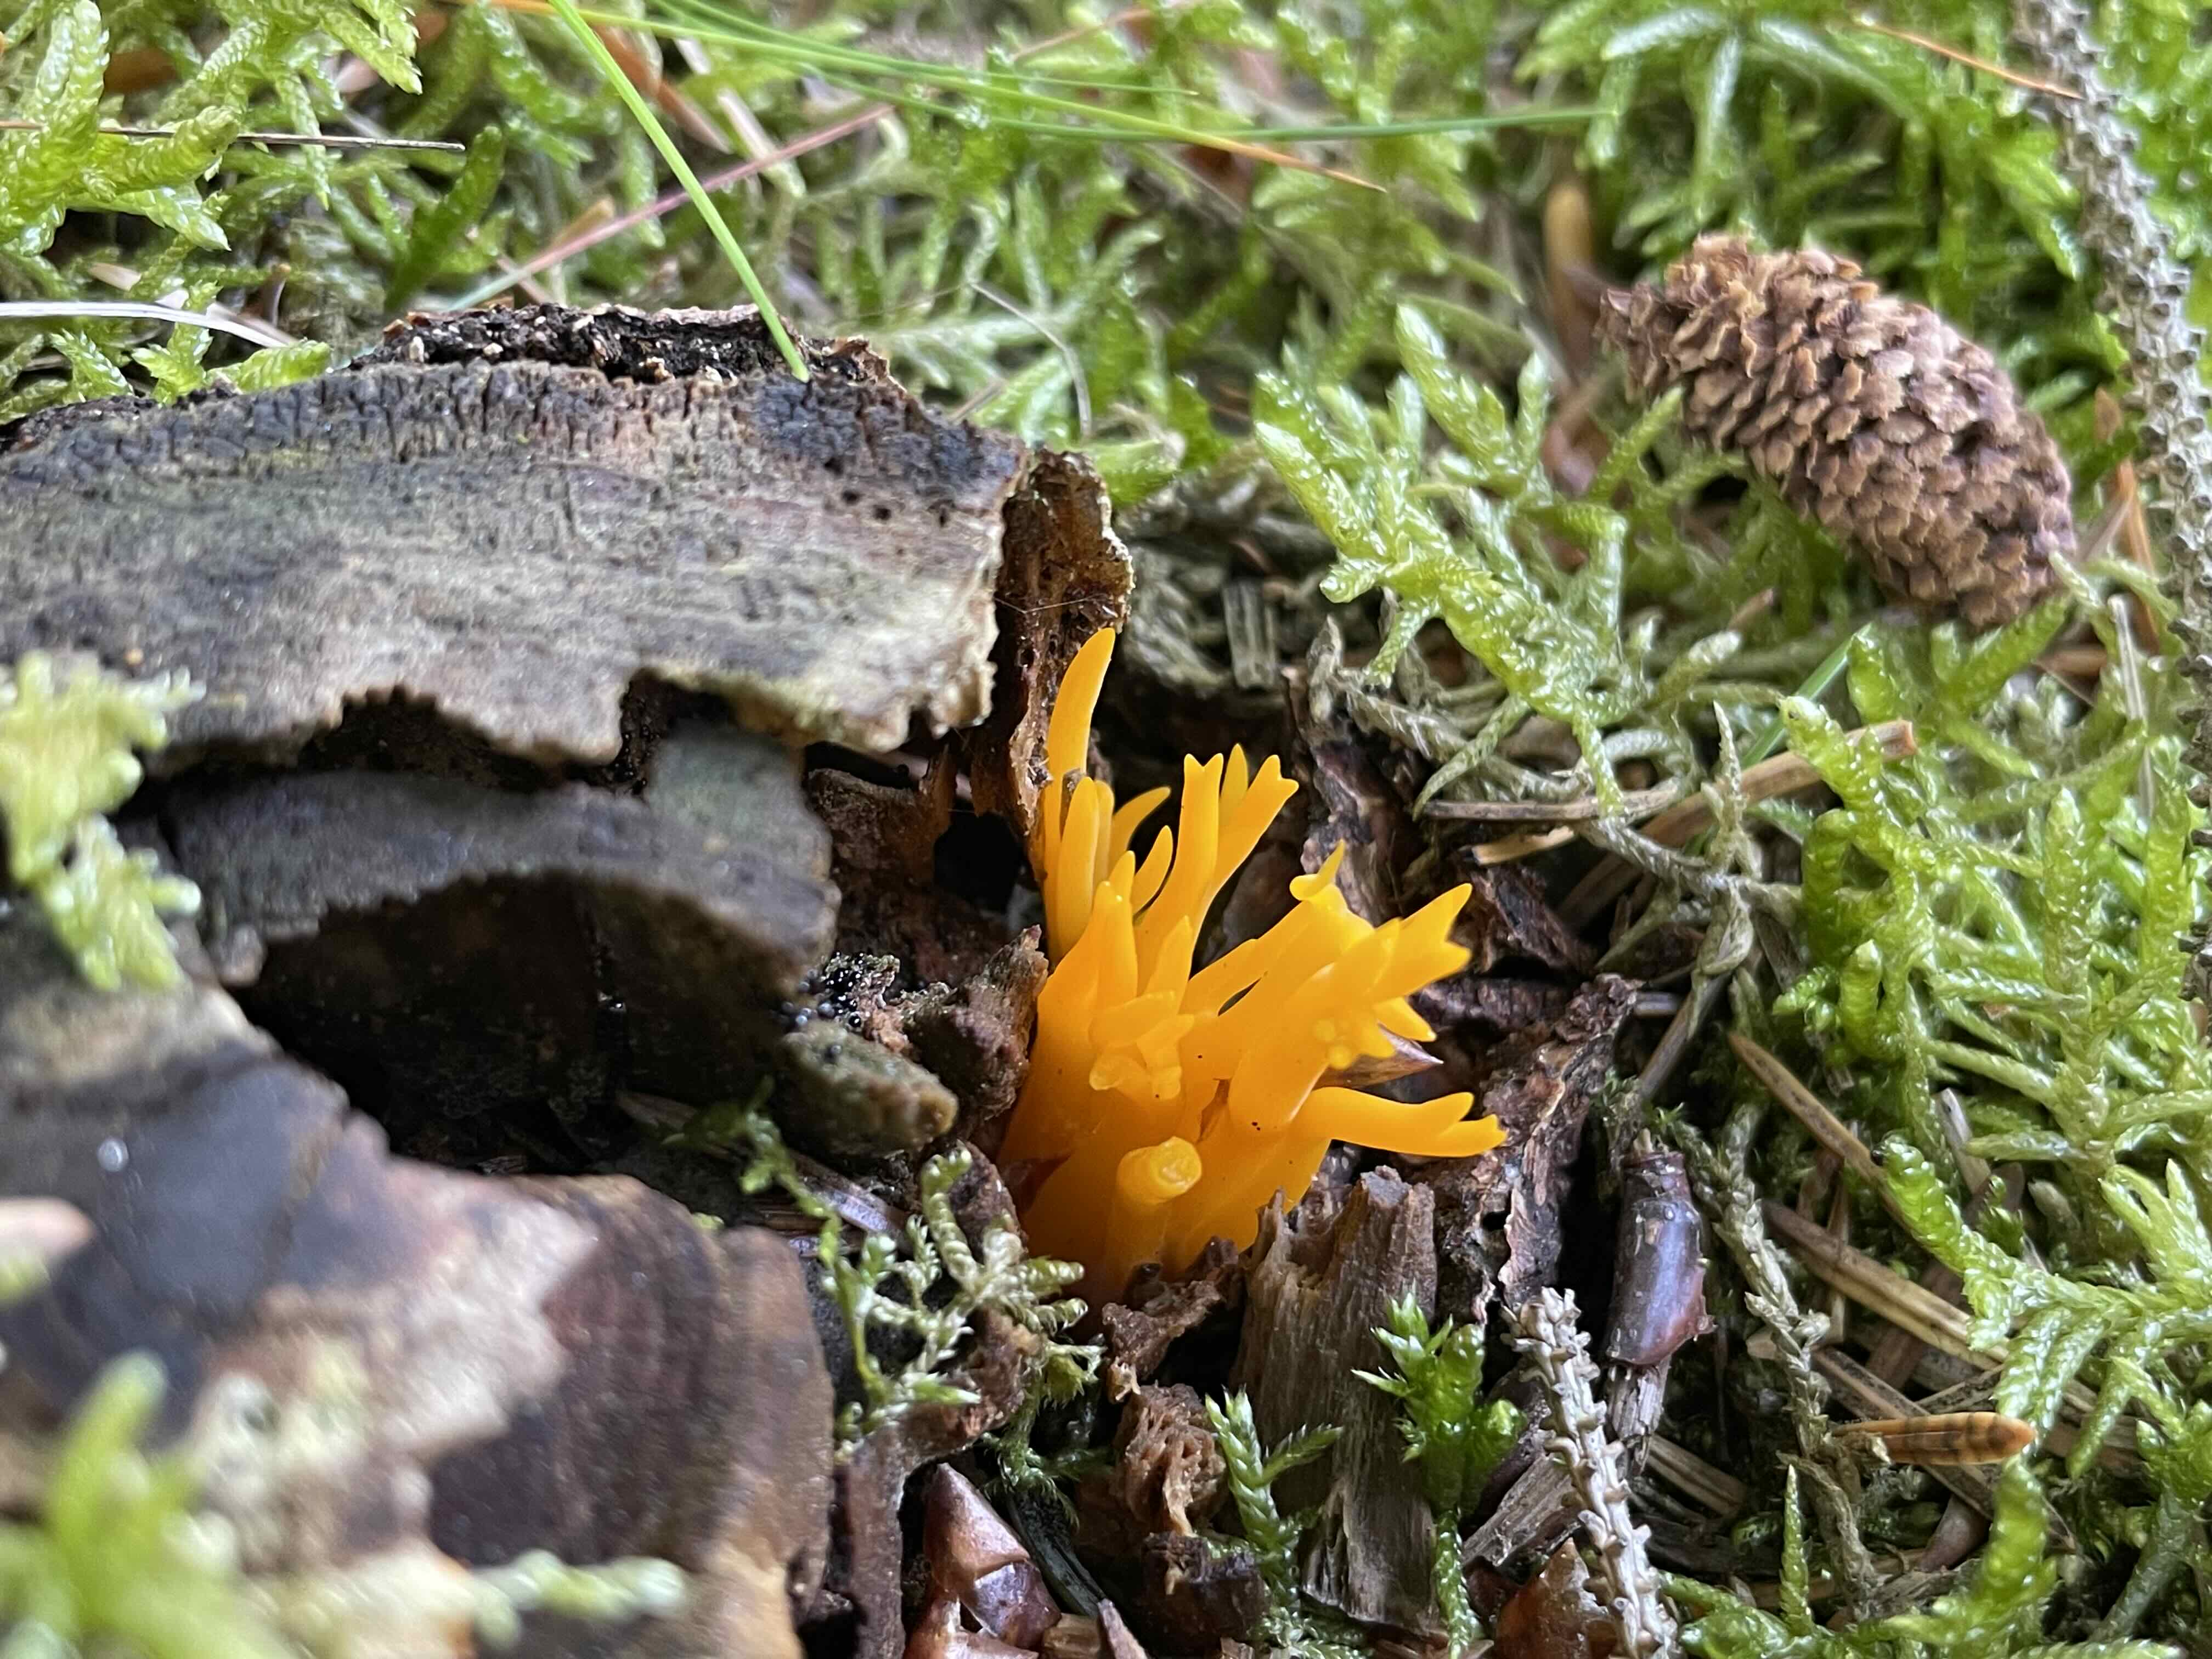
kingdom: Fungi
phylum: Basidiomycota
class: Dacrymycetes
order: Dacrymycetales
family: Dacrymycetaceae
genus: Calocera
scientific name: Calocera viscosa
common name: almindelig guldgaffel
